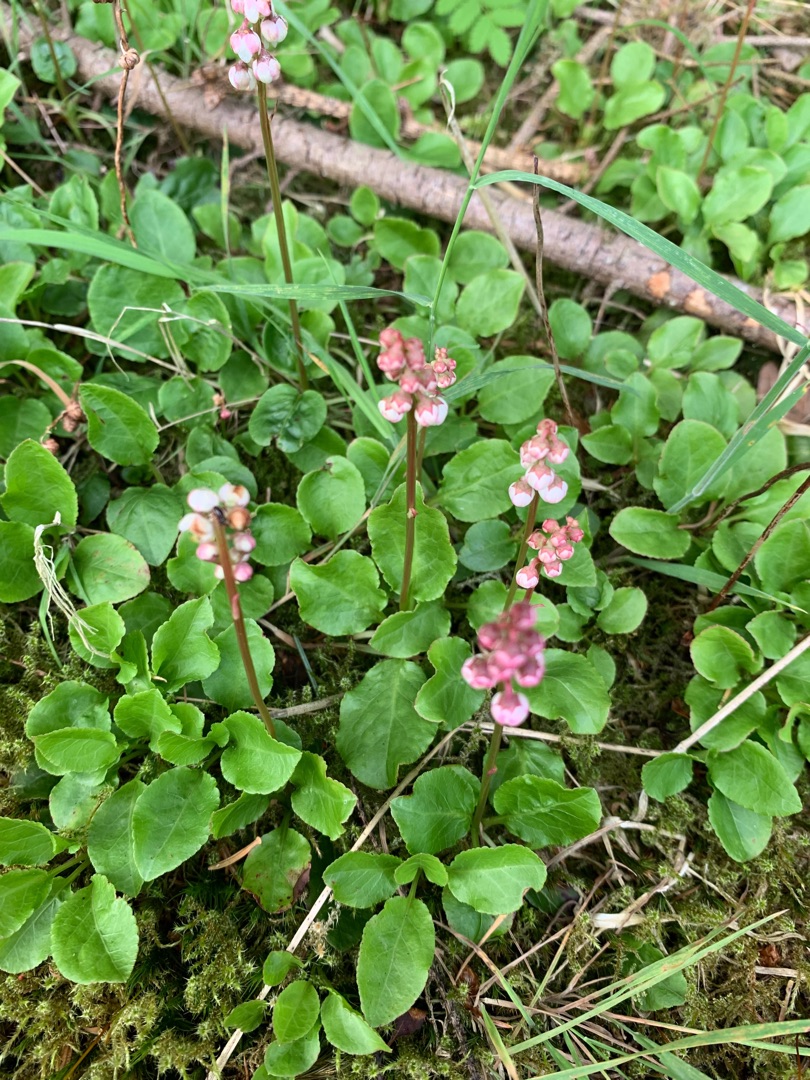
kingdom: Plantae
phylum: Tracheophyta
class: Magnoliopsida
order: Ericales
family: Ericaceae
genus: Pyrola
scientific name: Pyrola minor
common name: Liden vintergrøn
